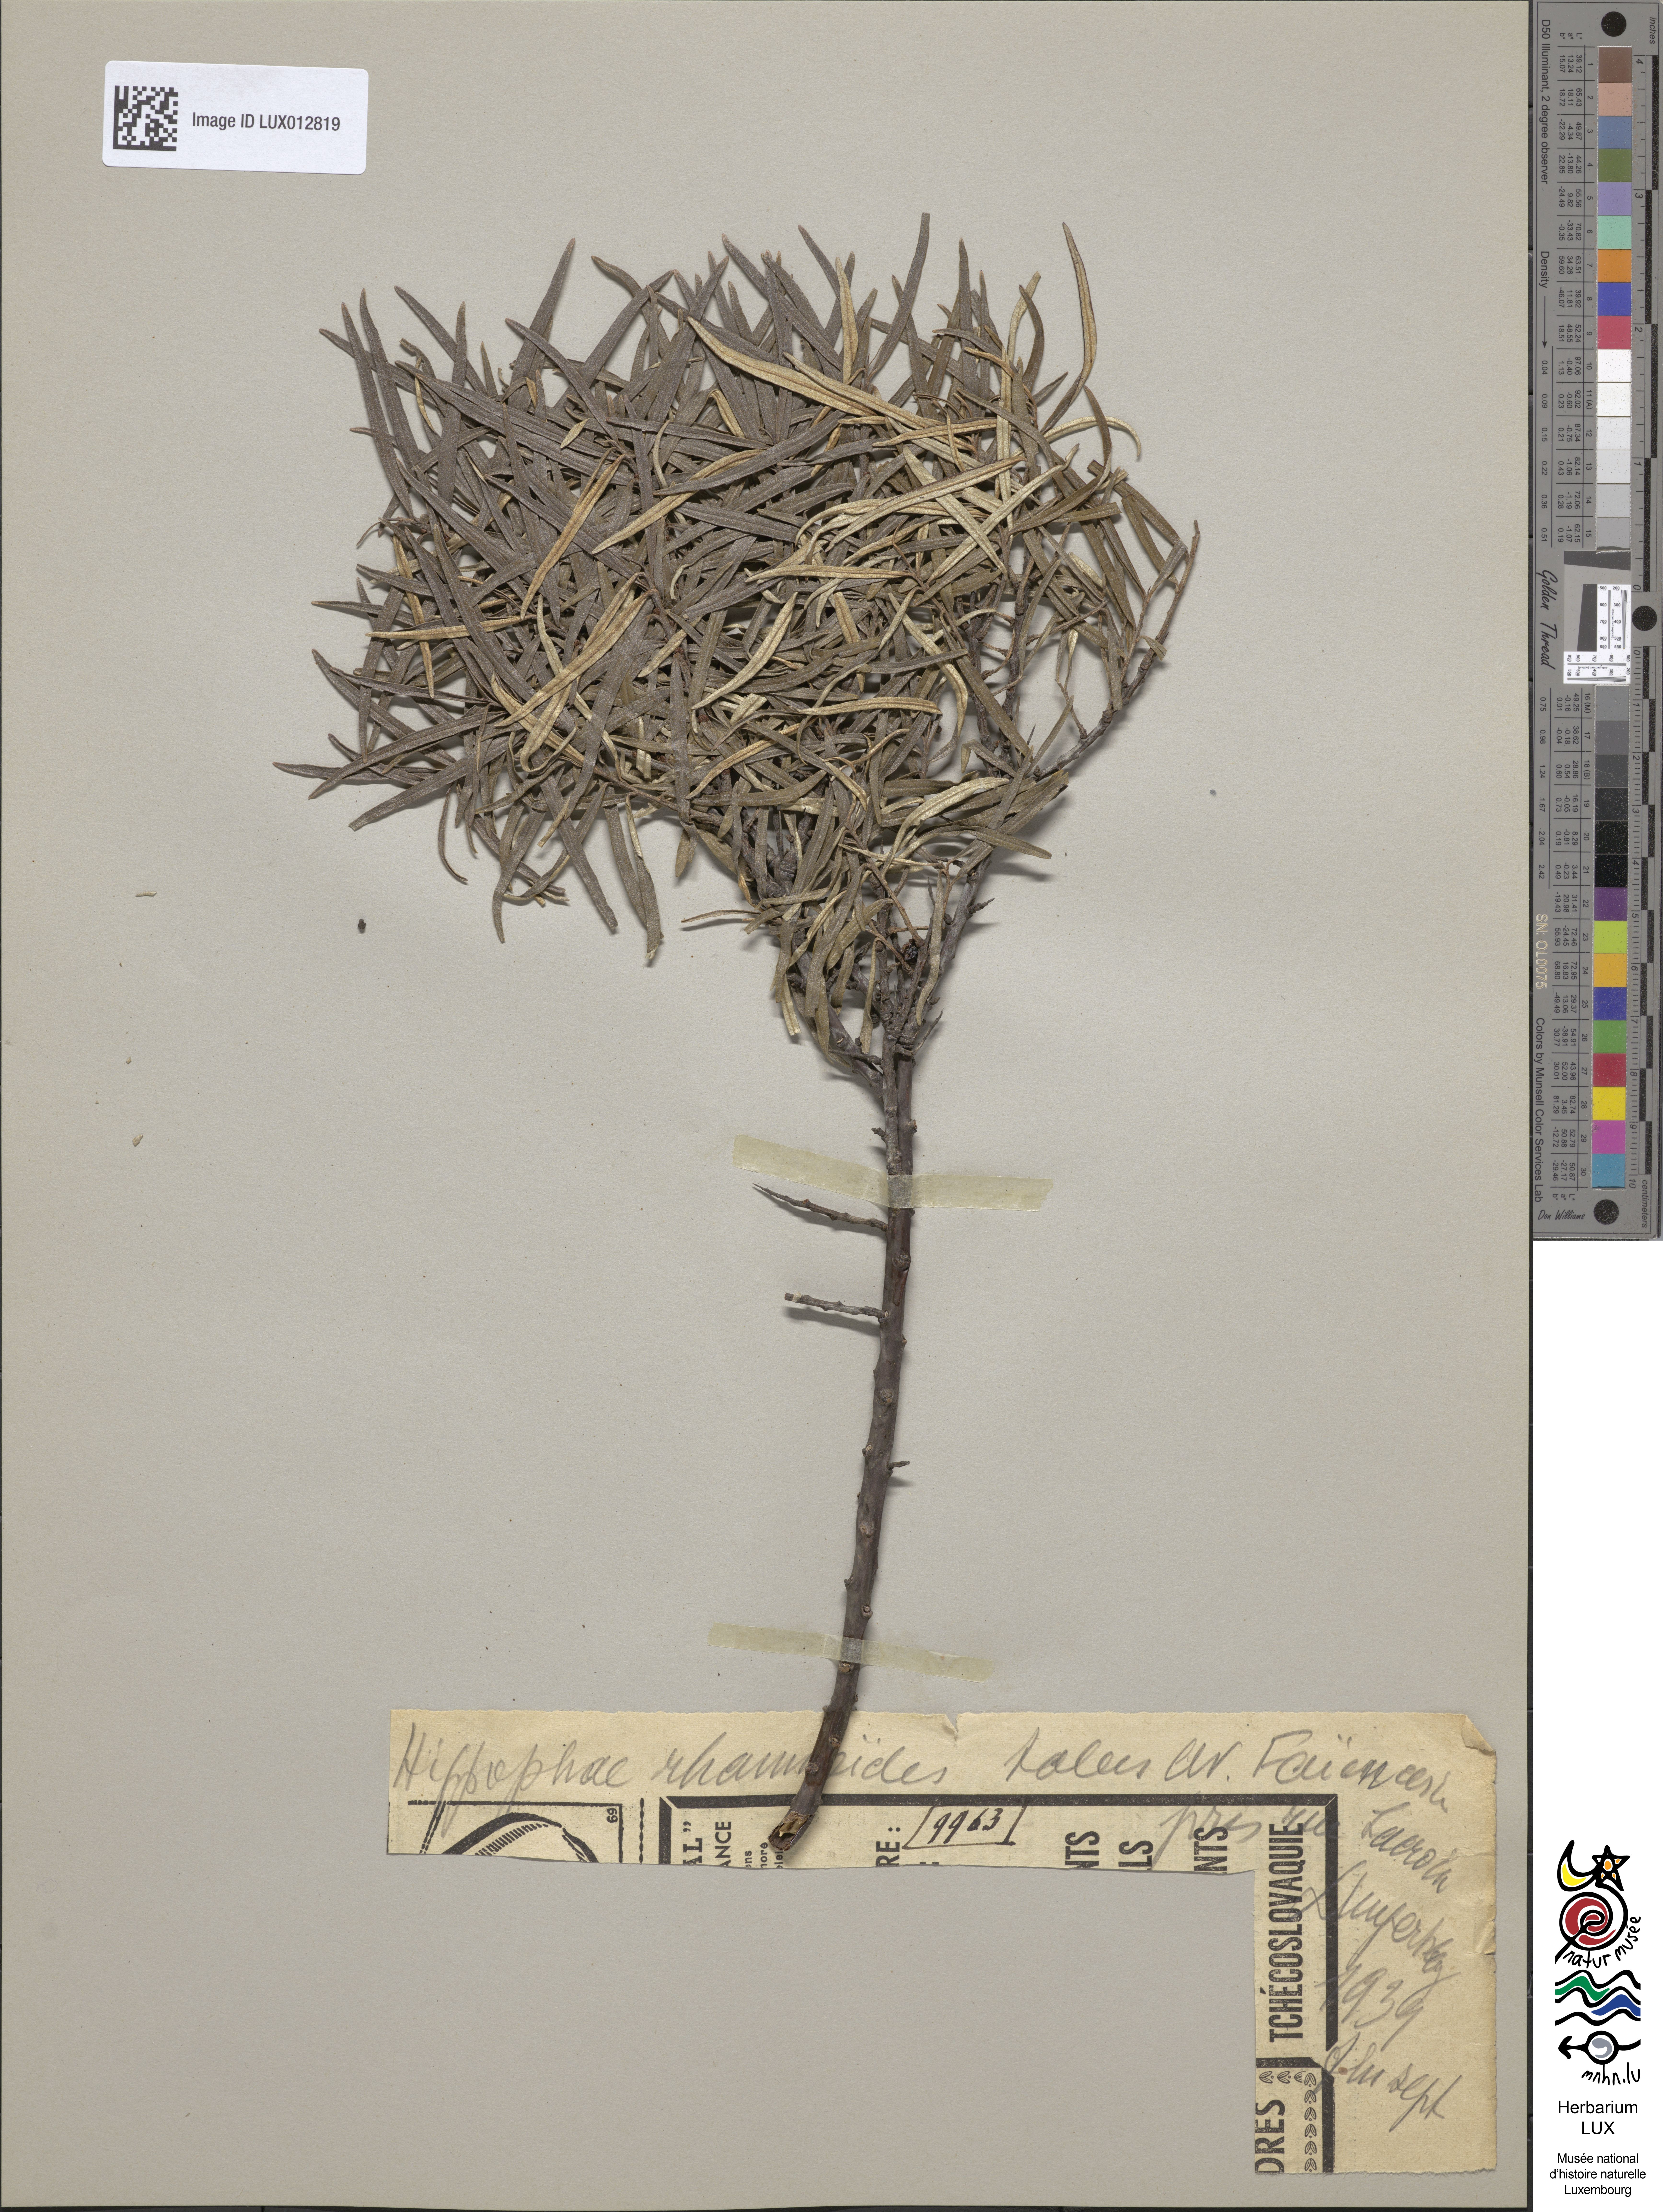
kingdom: Plantae
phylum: Tracheophyta
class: Magnoliopsida
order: Rosales
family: Elaeagnaceae
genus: Hippophae
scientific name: Hippophae rhamnoides
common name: Sea-buckthorn
